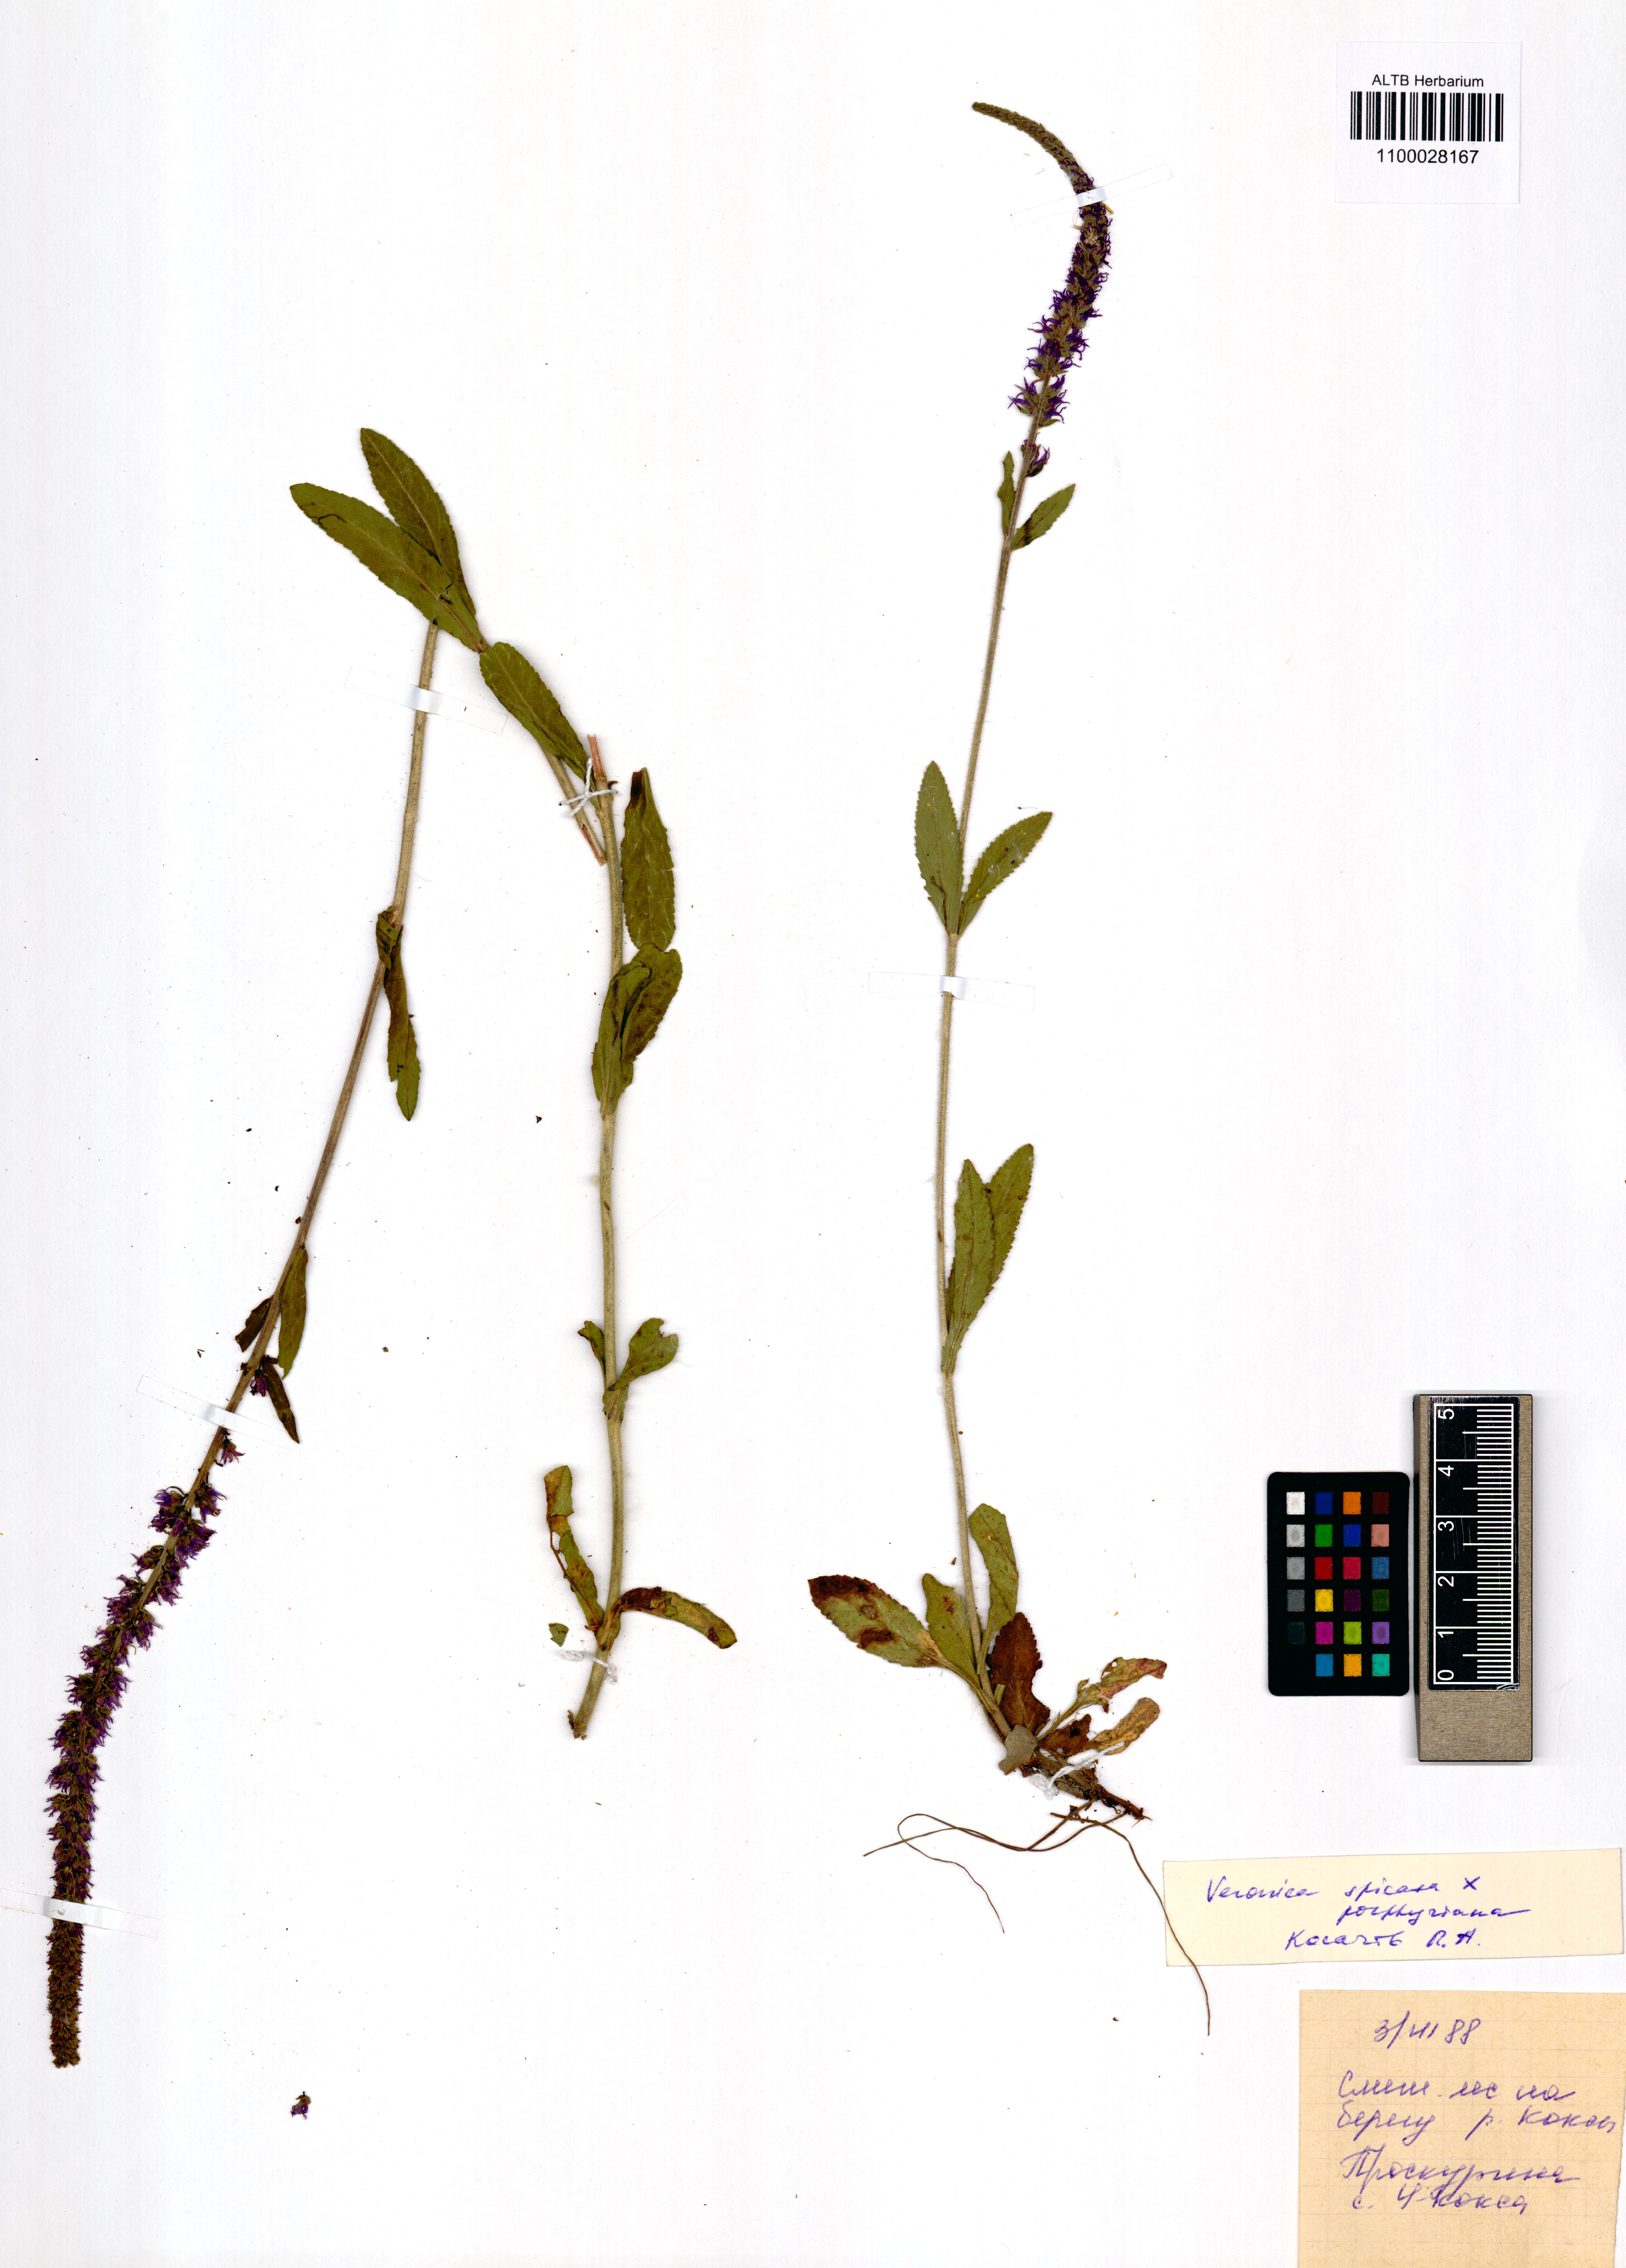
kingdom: Plantae
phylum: Tracheophyta
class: Magnoliopsida
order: Lamiales
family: Plantaginaceae
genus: Veronica
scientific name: Veronica spicata
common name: Spiked speedwell
